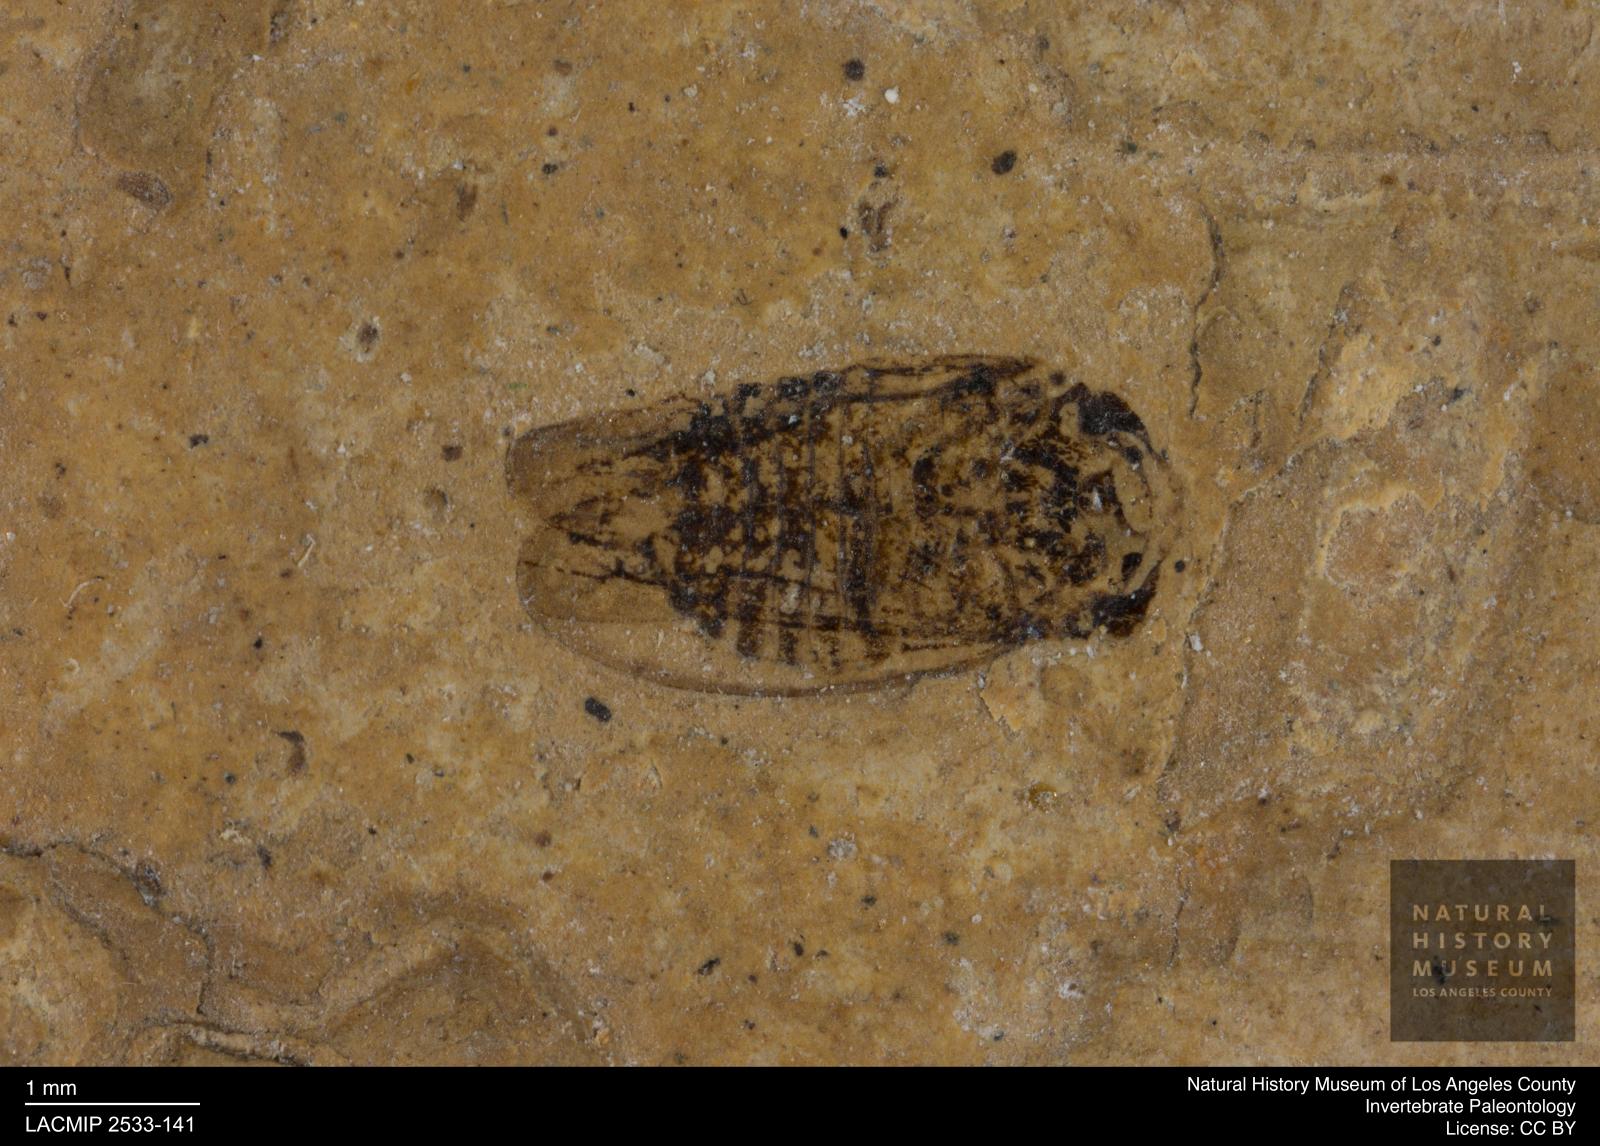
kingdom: Animalia
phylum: Arthropoda
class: Insecta
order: Hemiptera
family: Cicadellidae
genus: Penestragania
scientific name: Penestragania robusta
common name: Robust leafhopper
